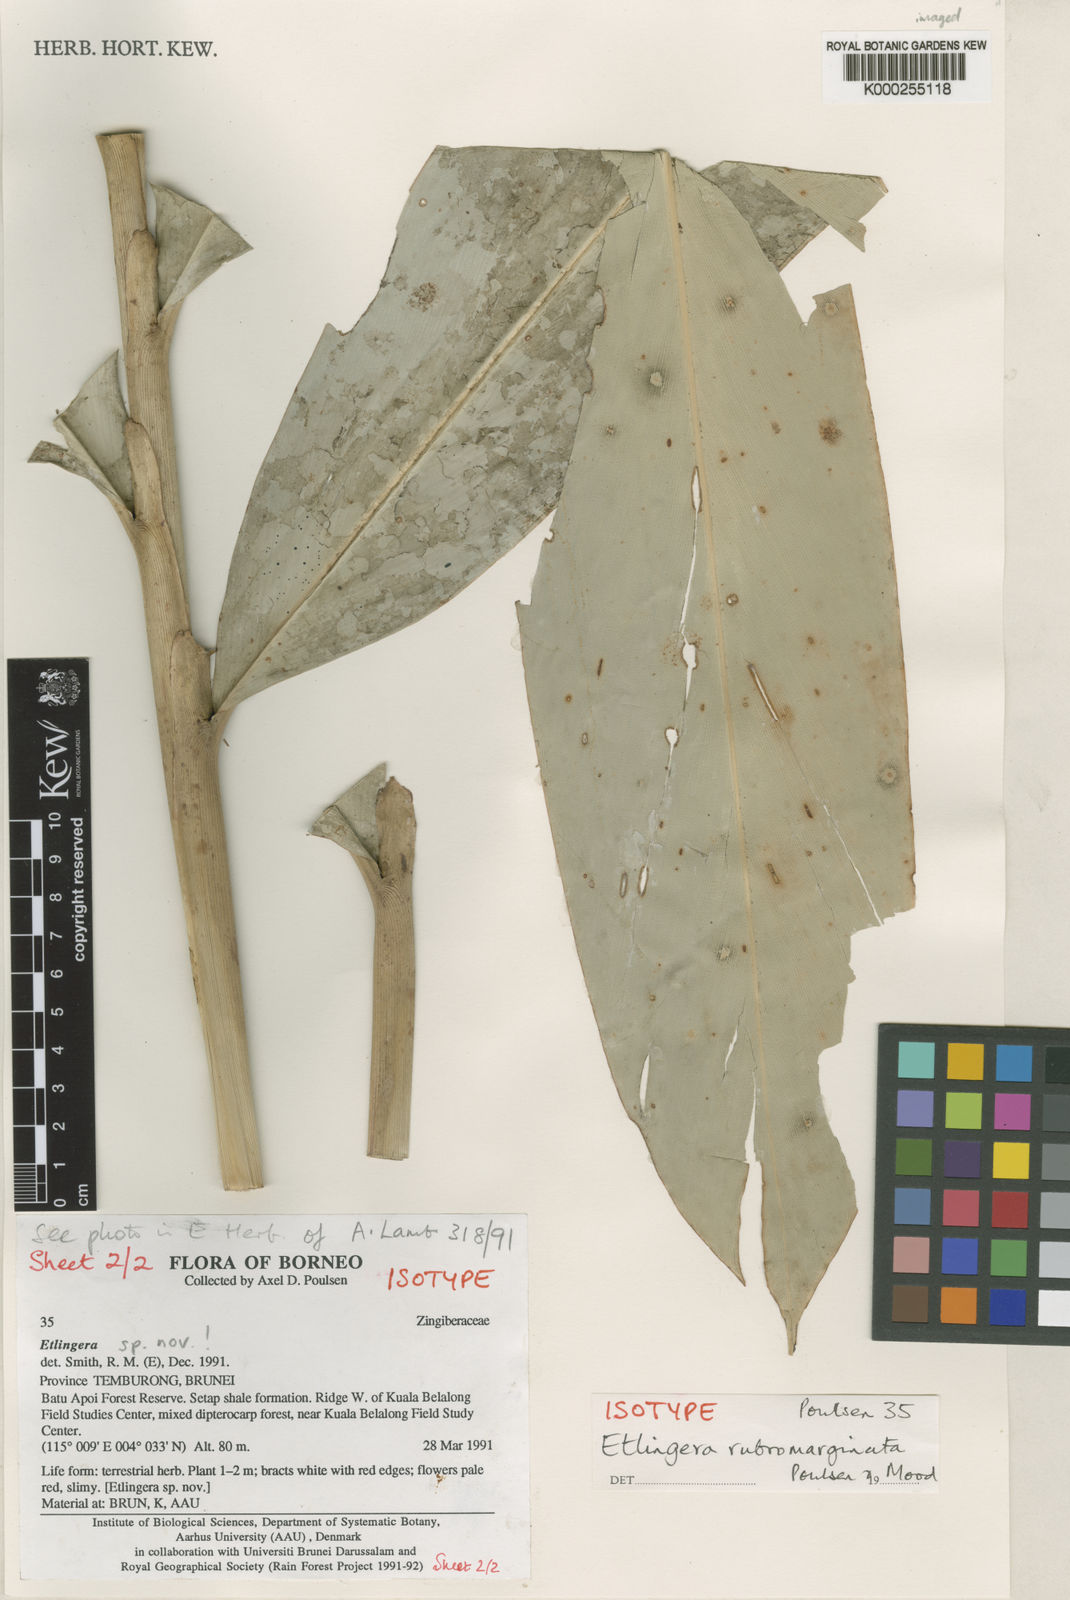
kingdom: Plantae
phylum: Tracheophyta
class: Liliopsida
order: Zingiberales
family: Zingiberaceae
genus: Etlingera
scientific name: Etlingera rubromarginata
